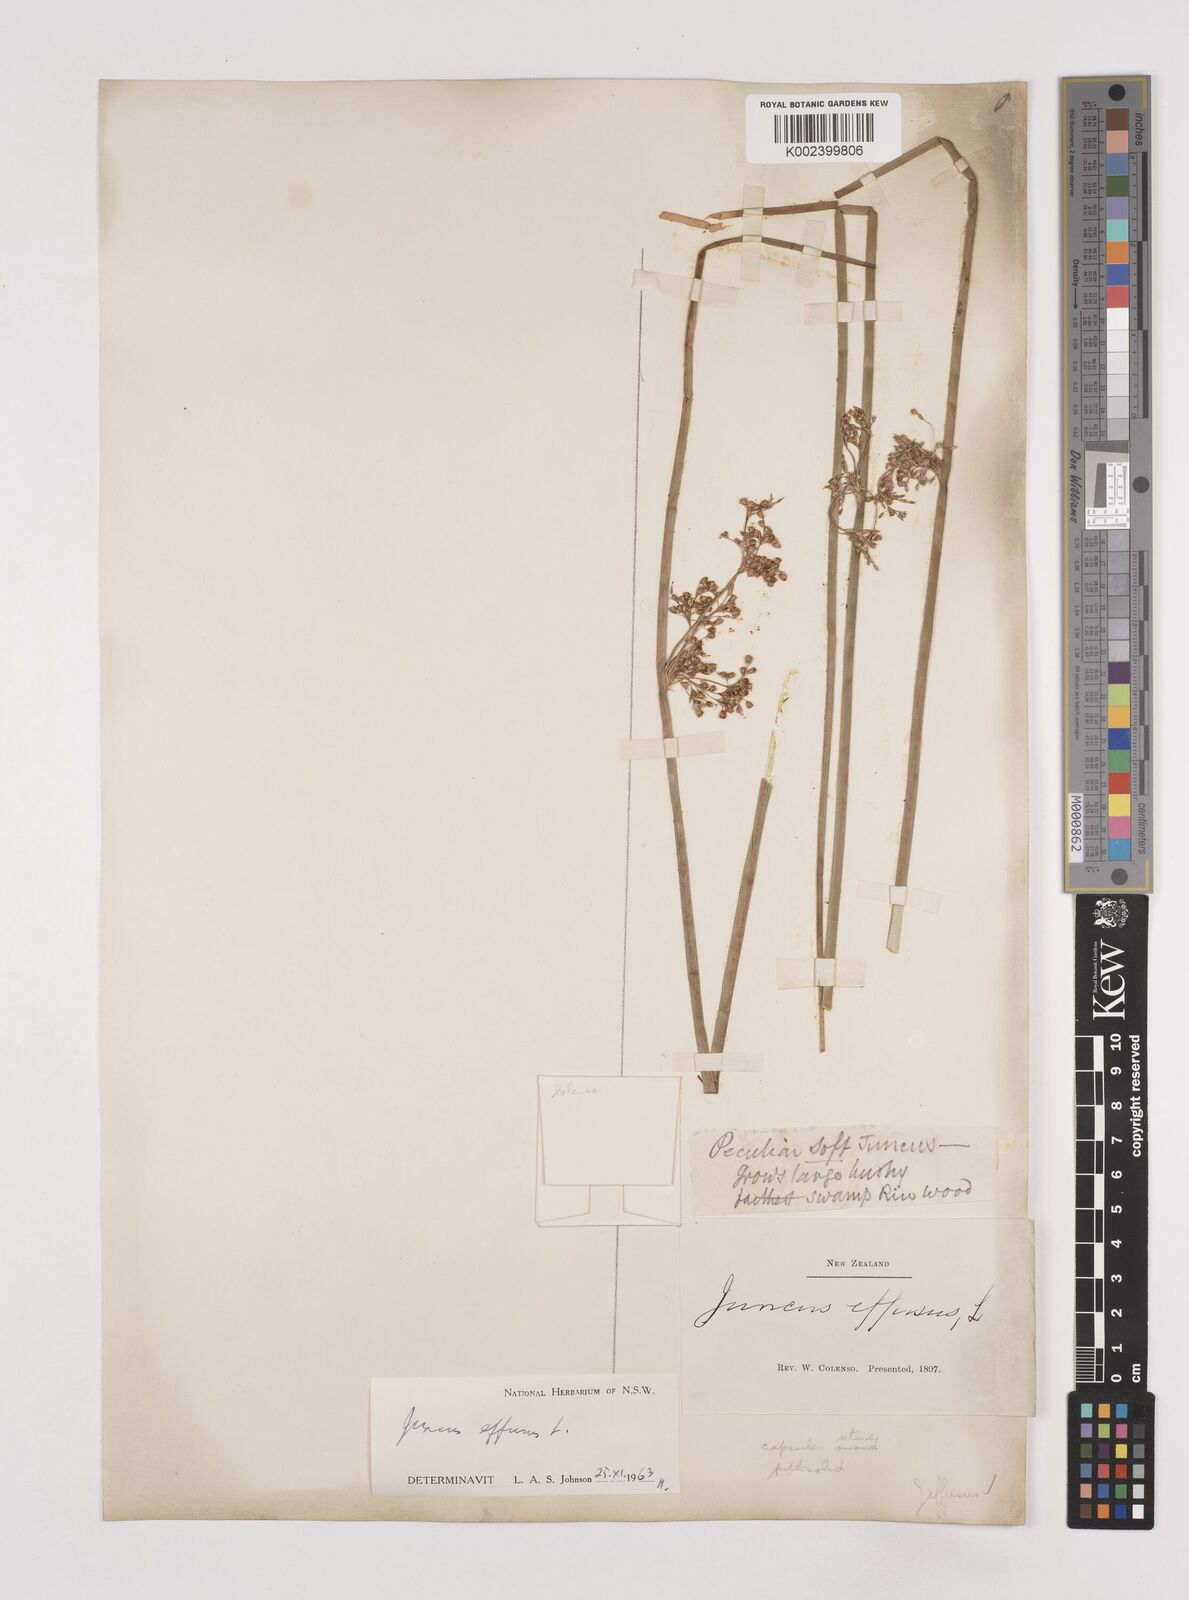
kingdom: Plantae
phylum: Tracheophyta
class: Liliopsida
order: Poales
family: Juncaceae
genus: Juncus
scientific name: Juncus effusus
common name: Soft rush
